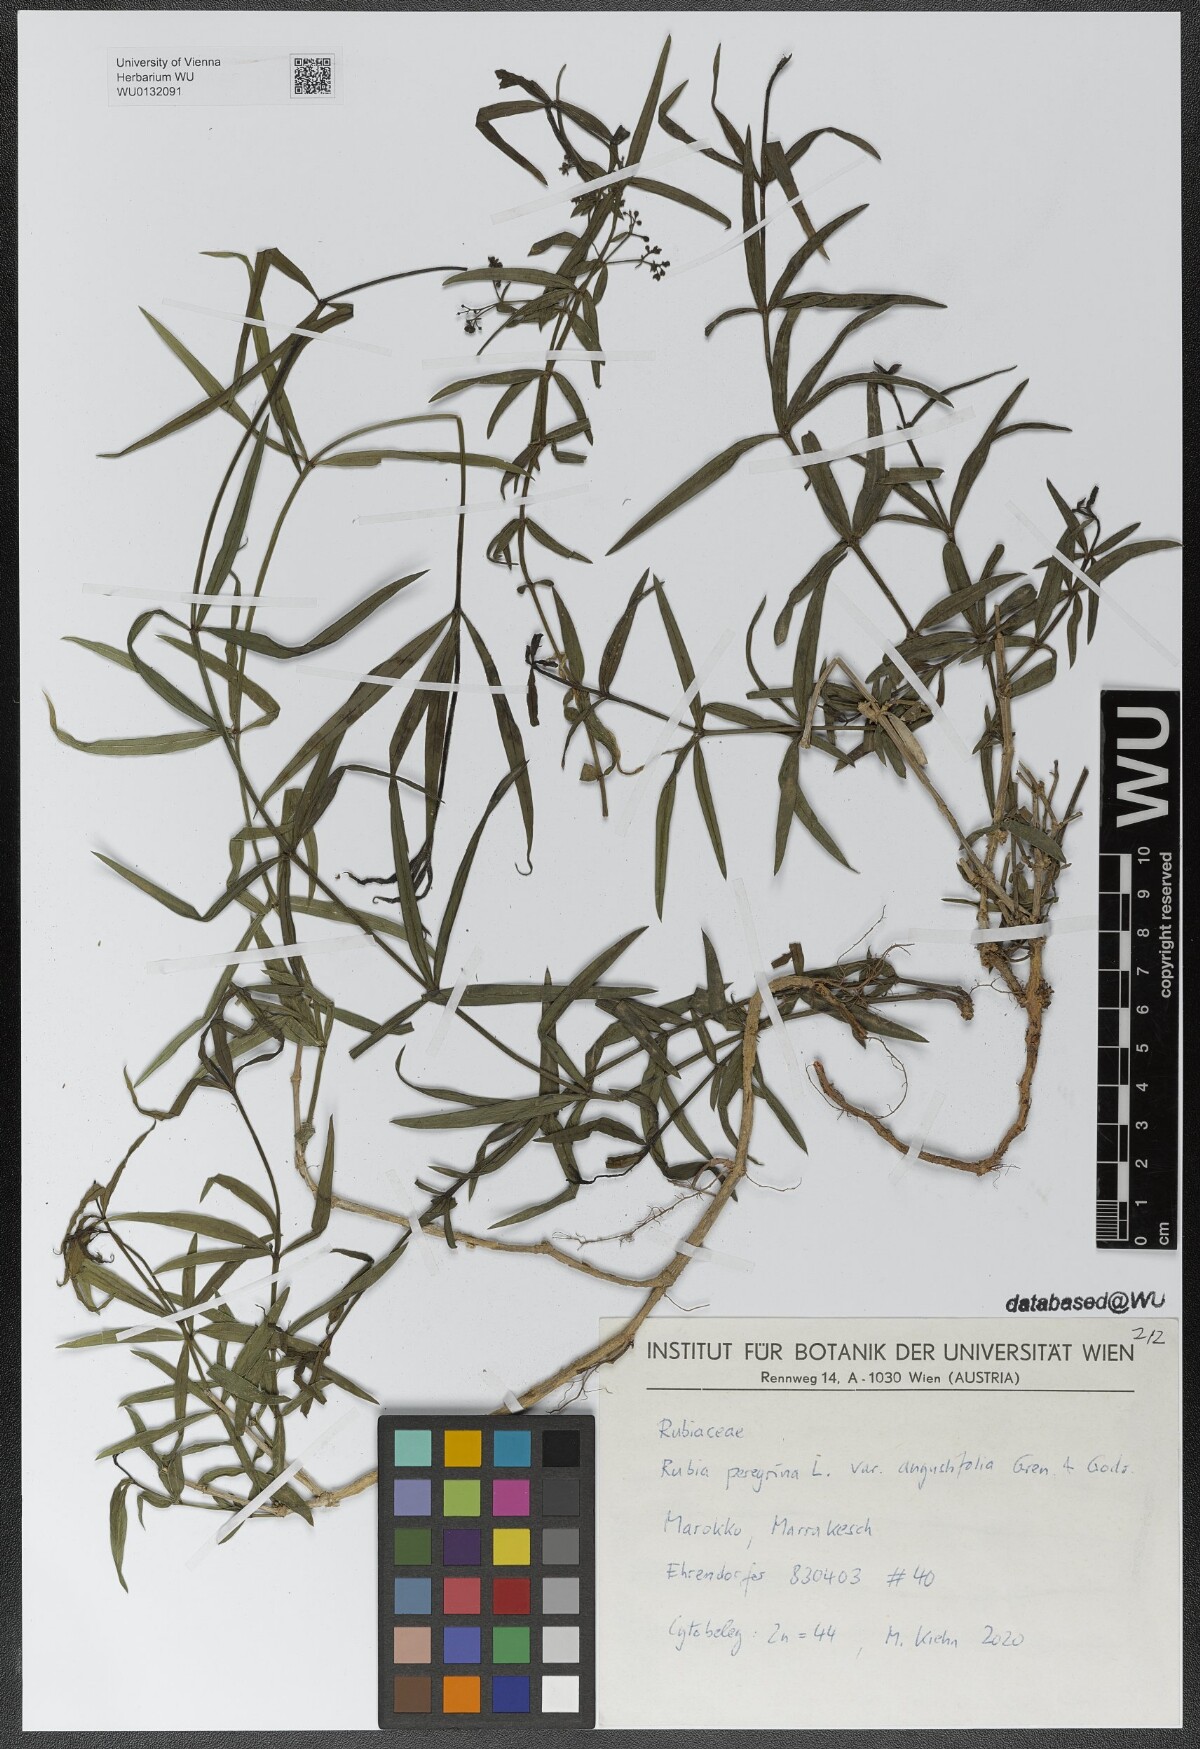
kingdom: Plantae
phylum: Tracheophyta
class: Magnoliopsida
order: Gentianales
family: Rubiaceae
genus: Rubia
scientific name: Rubia peregrina
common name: Wild madder
